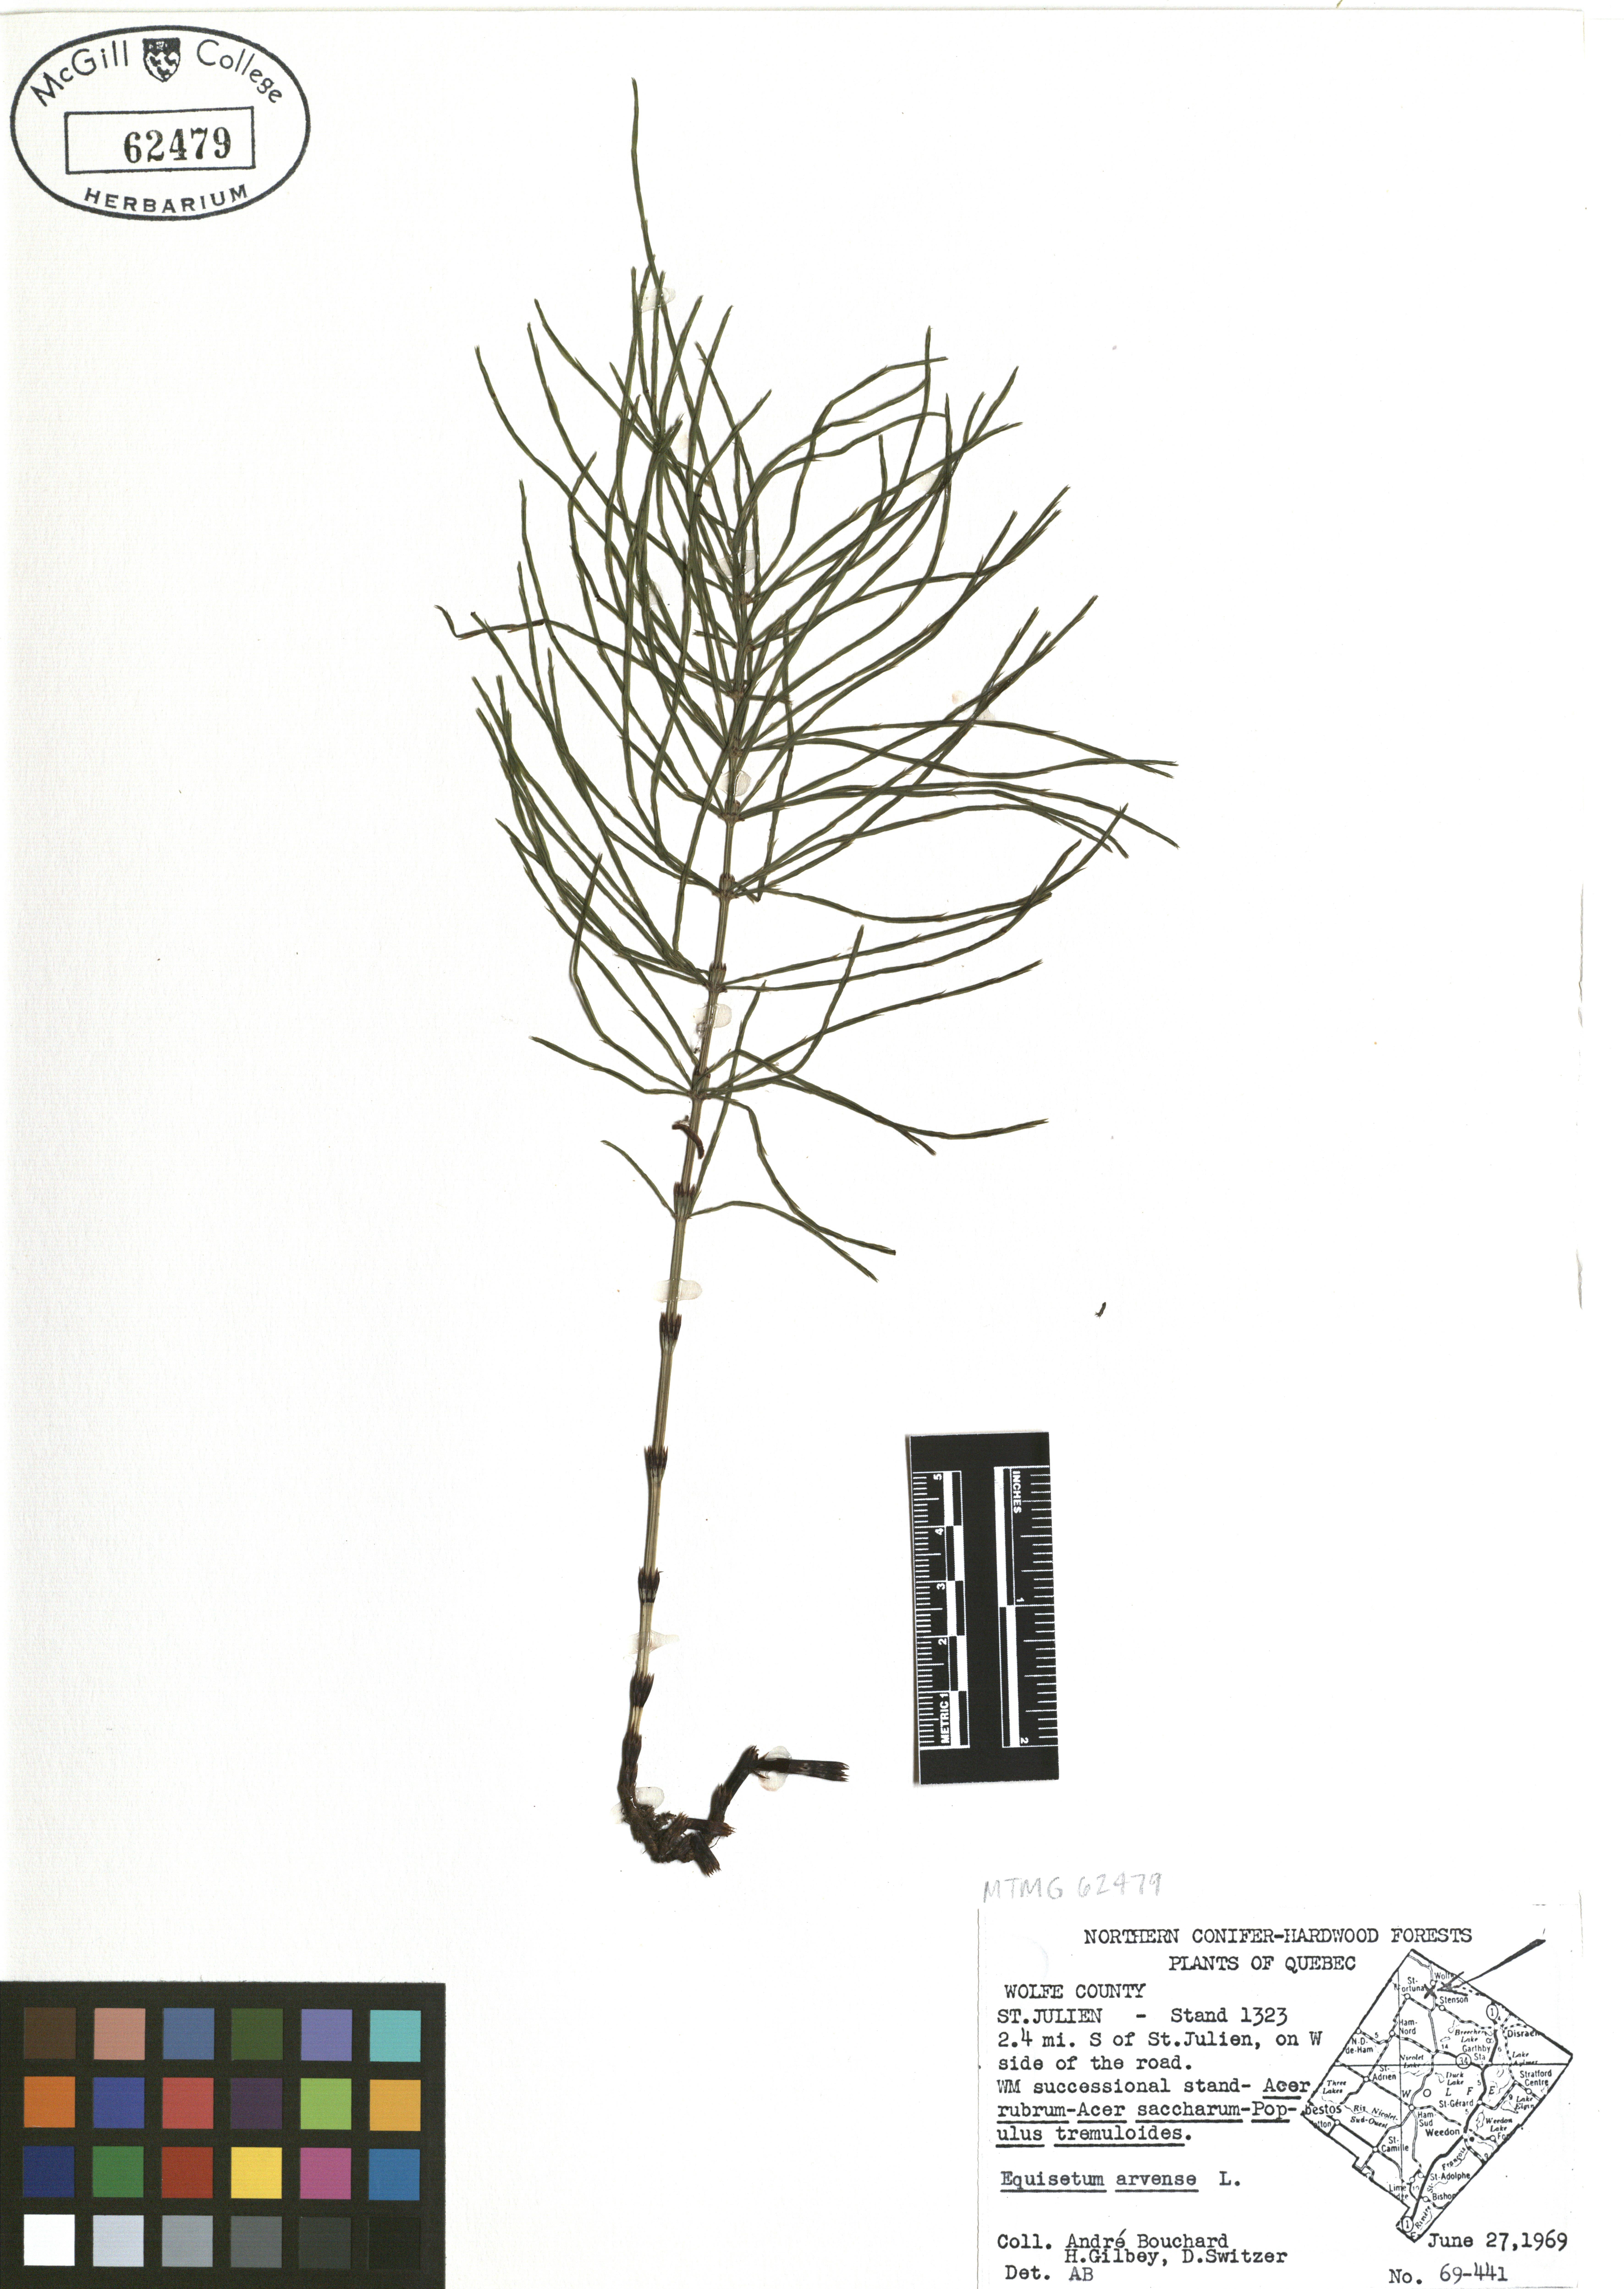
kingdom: Plantae
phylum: Tracheophyta
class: Polypodiopsida
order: Equisetales
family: Equisetaceae
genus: Equisetum
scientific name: Equisetum arvense
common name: Field horsetail
